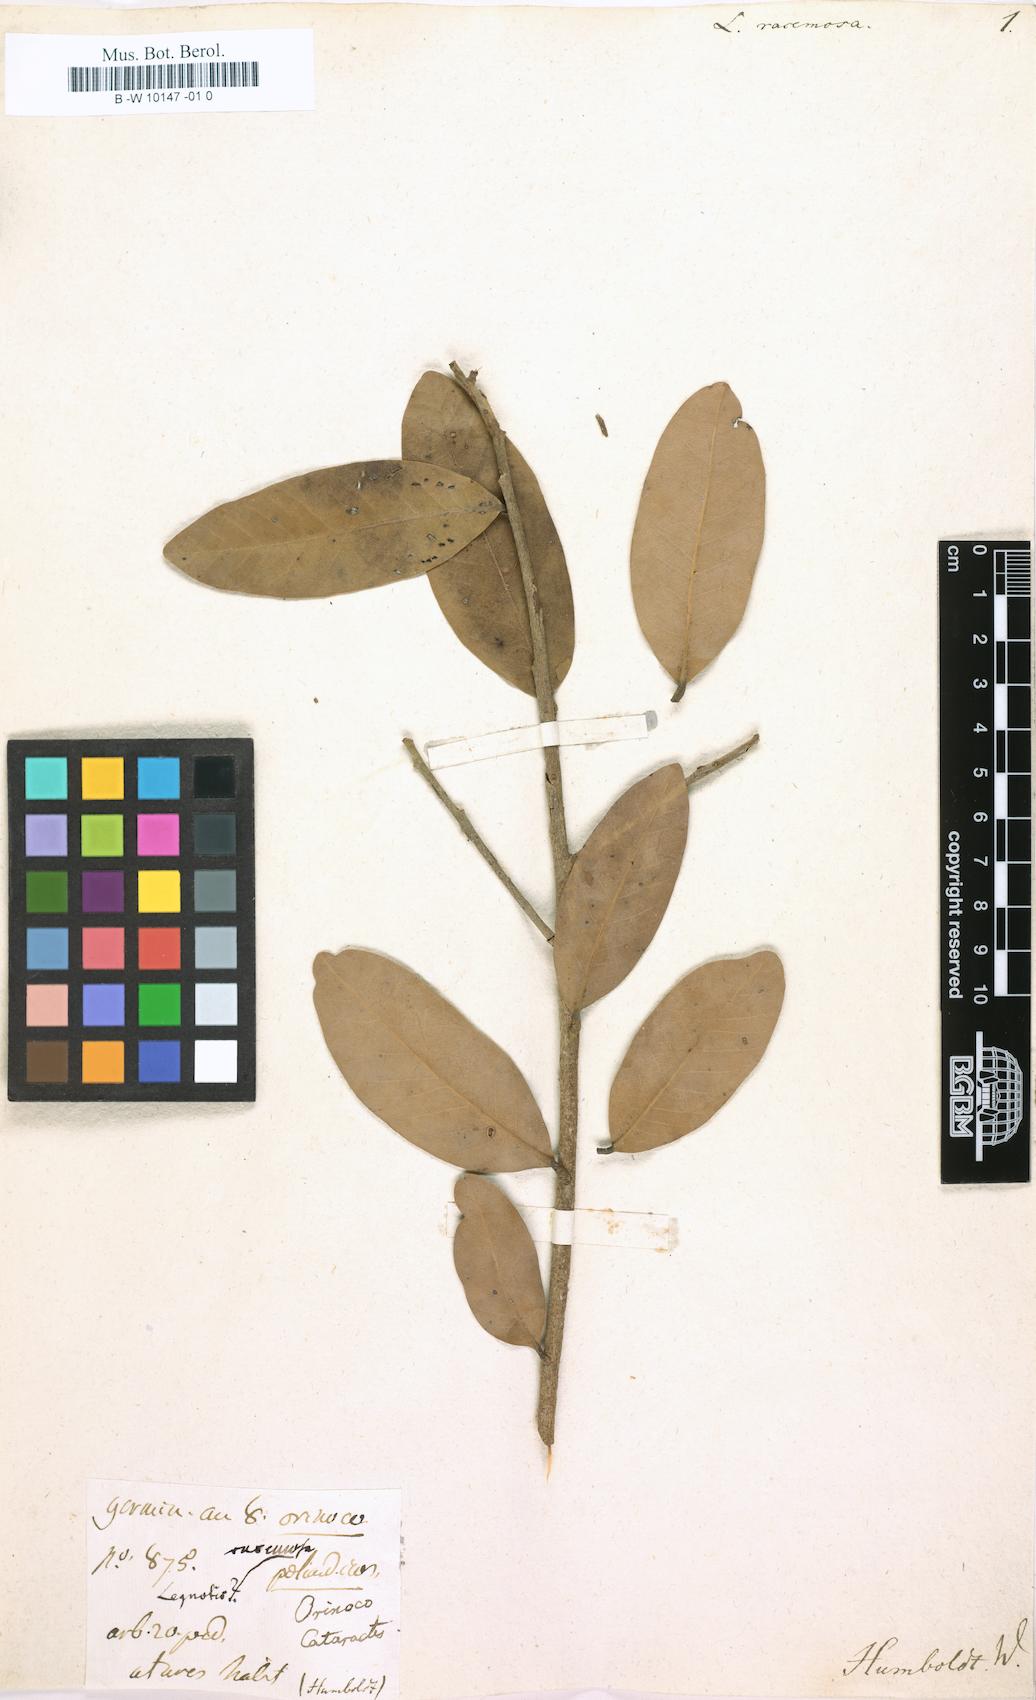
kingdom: Plantae
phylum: Tracheophyta
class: Magnoliopsida
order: Malpighiales
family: Rhizophoraceae
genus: Cassipourea
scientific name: Cassipourea
